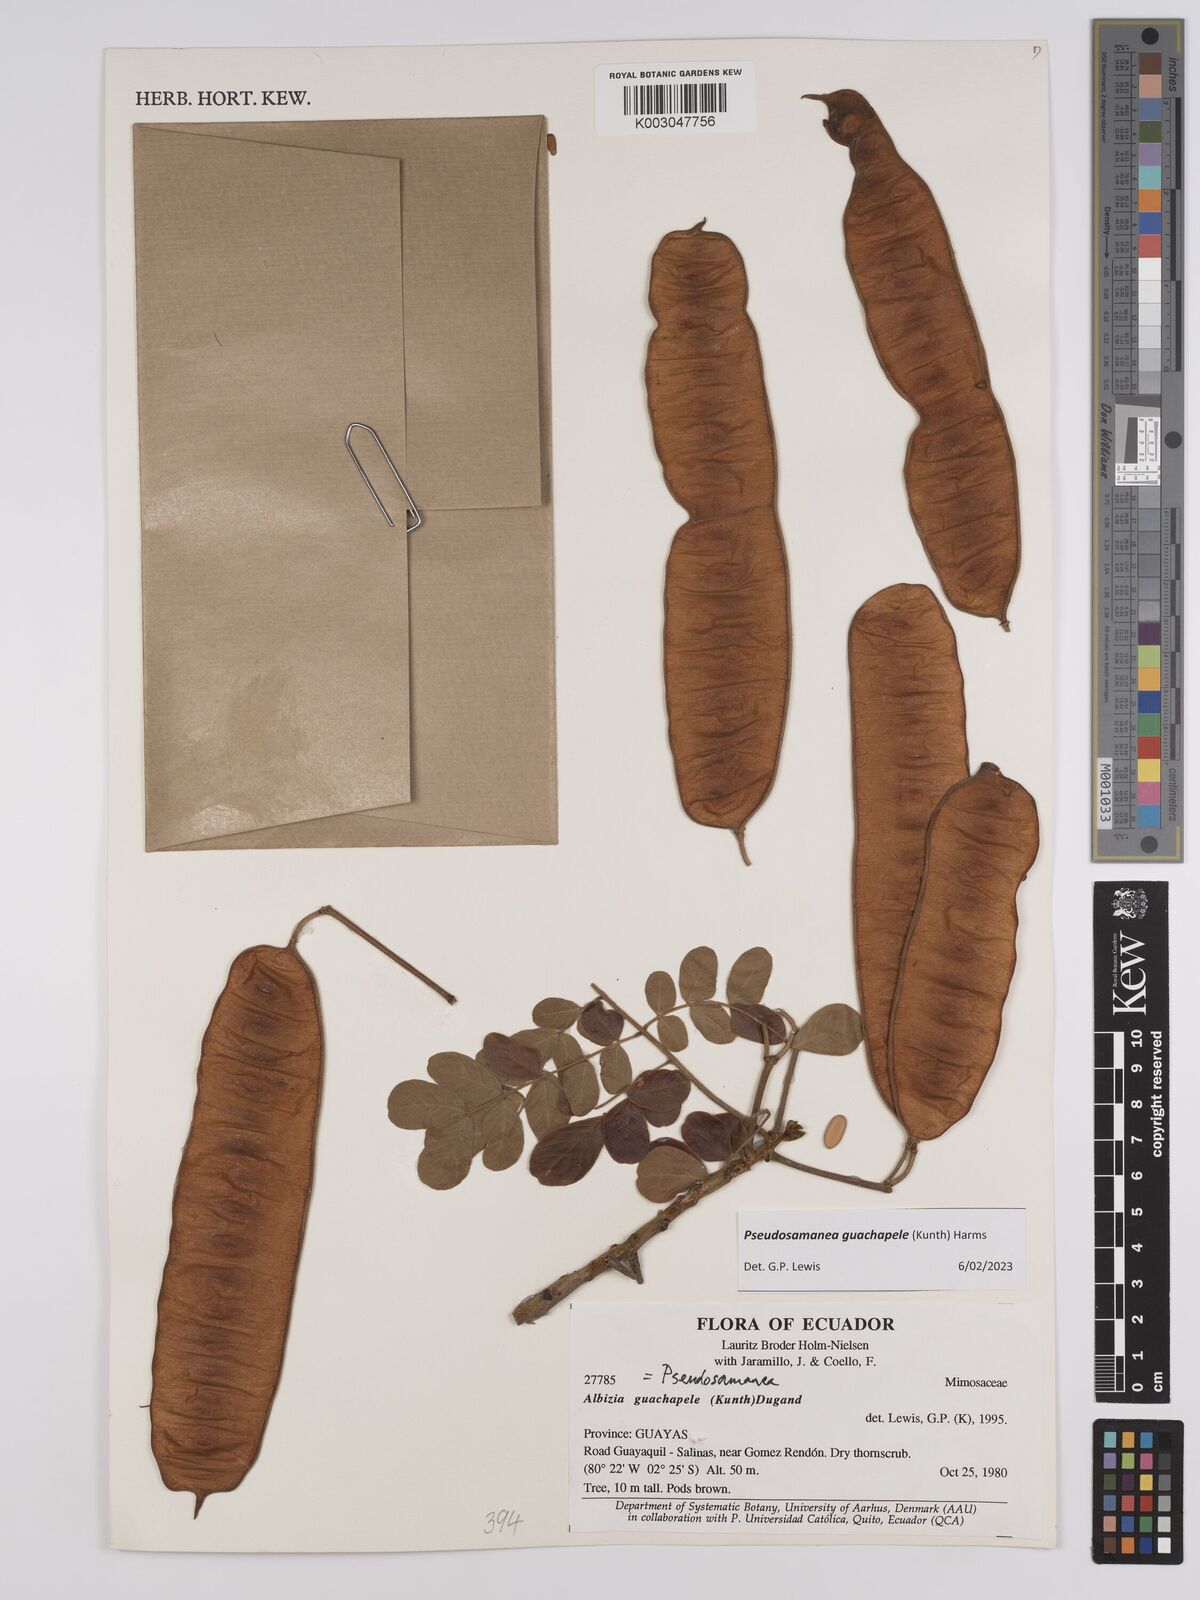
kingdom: Plantae
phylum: Tracheophyta
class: Magnoliopsida
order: Fabales
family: Fabaceae
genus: Pseudosamanea
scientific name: Pseudosamanea guachapele
